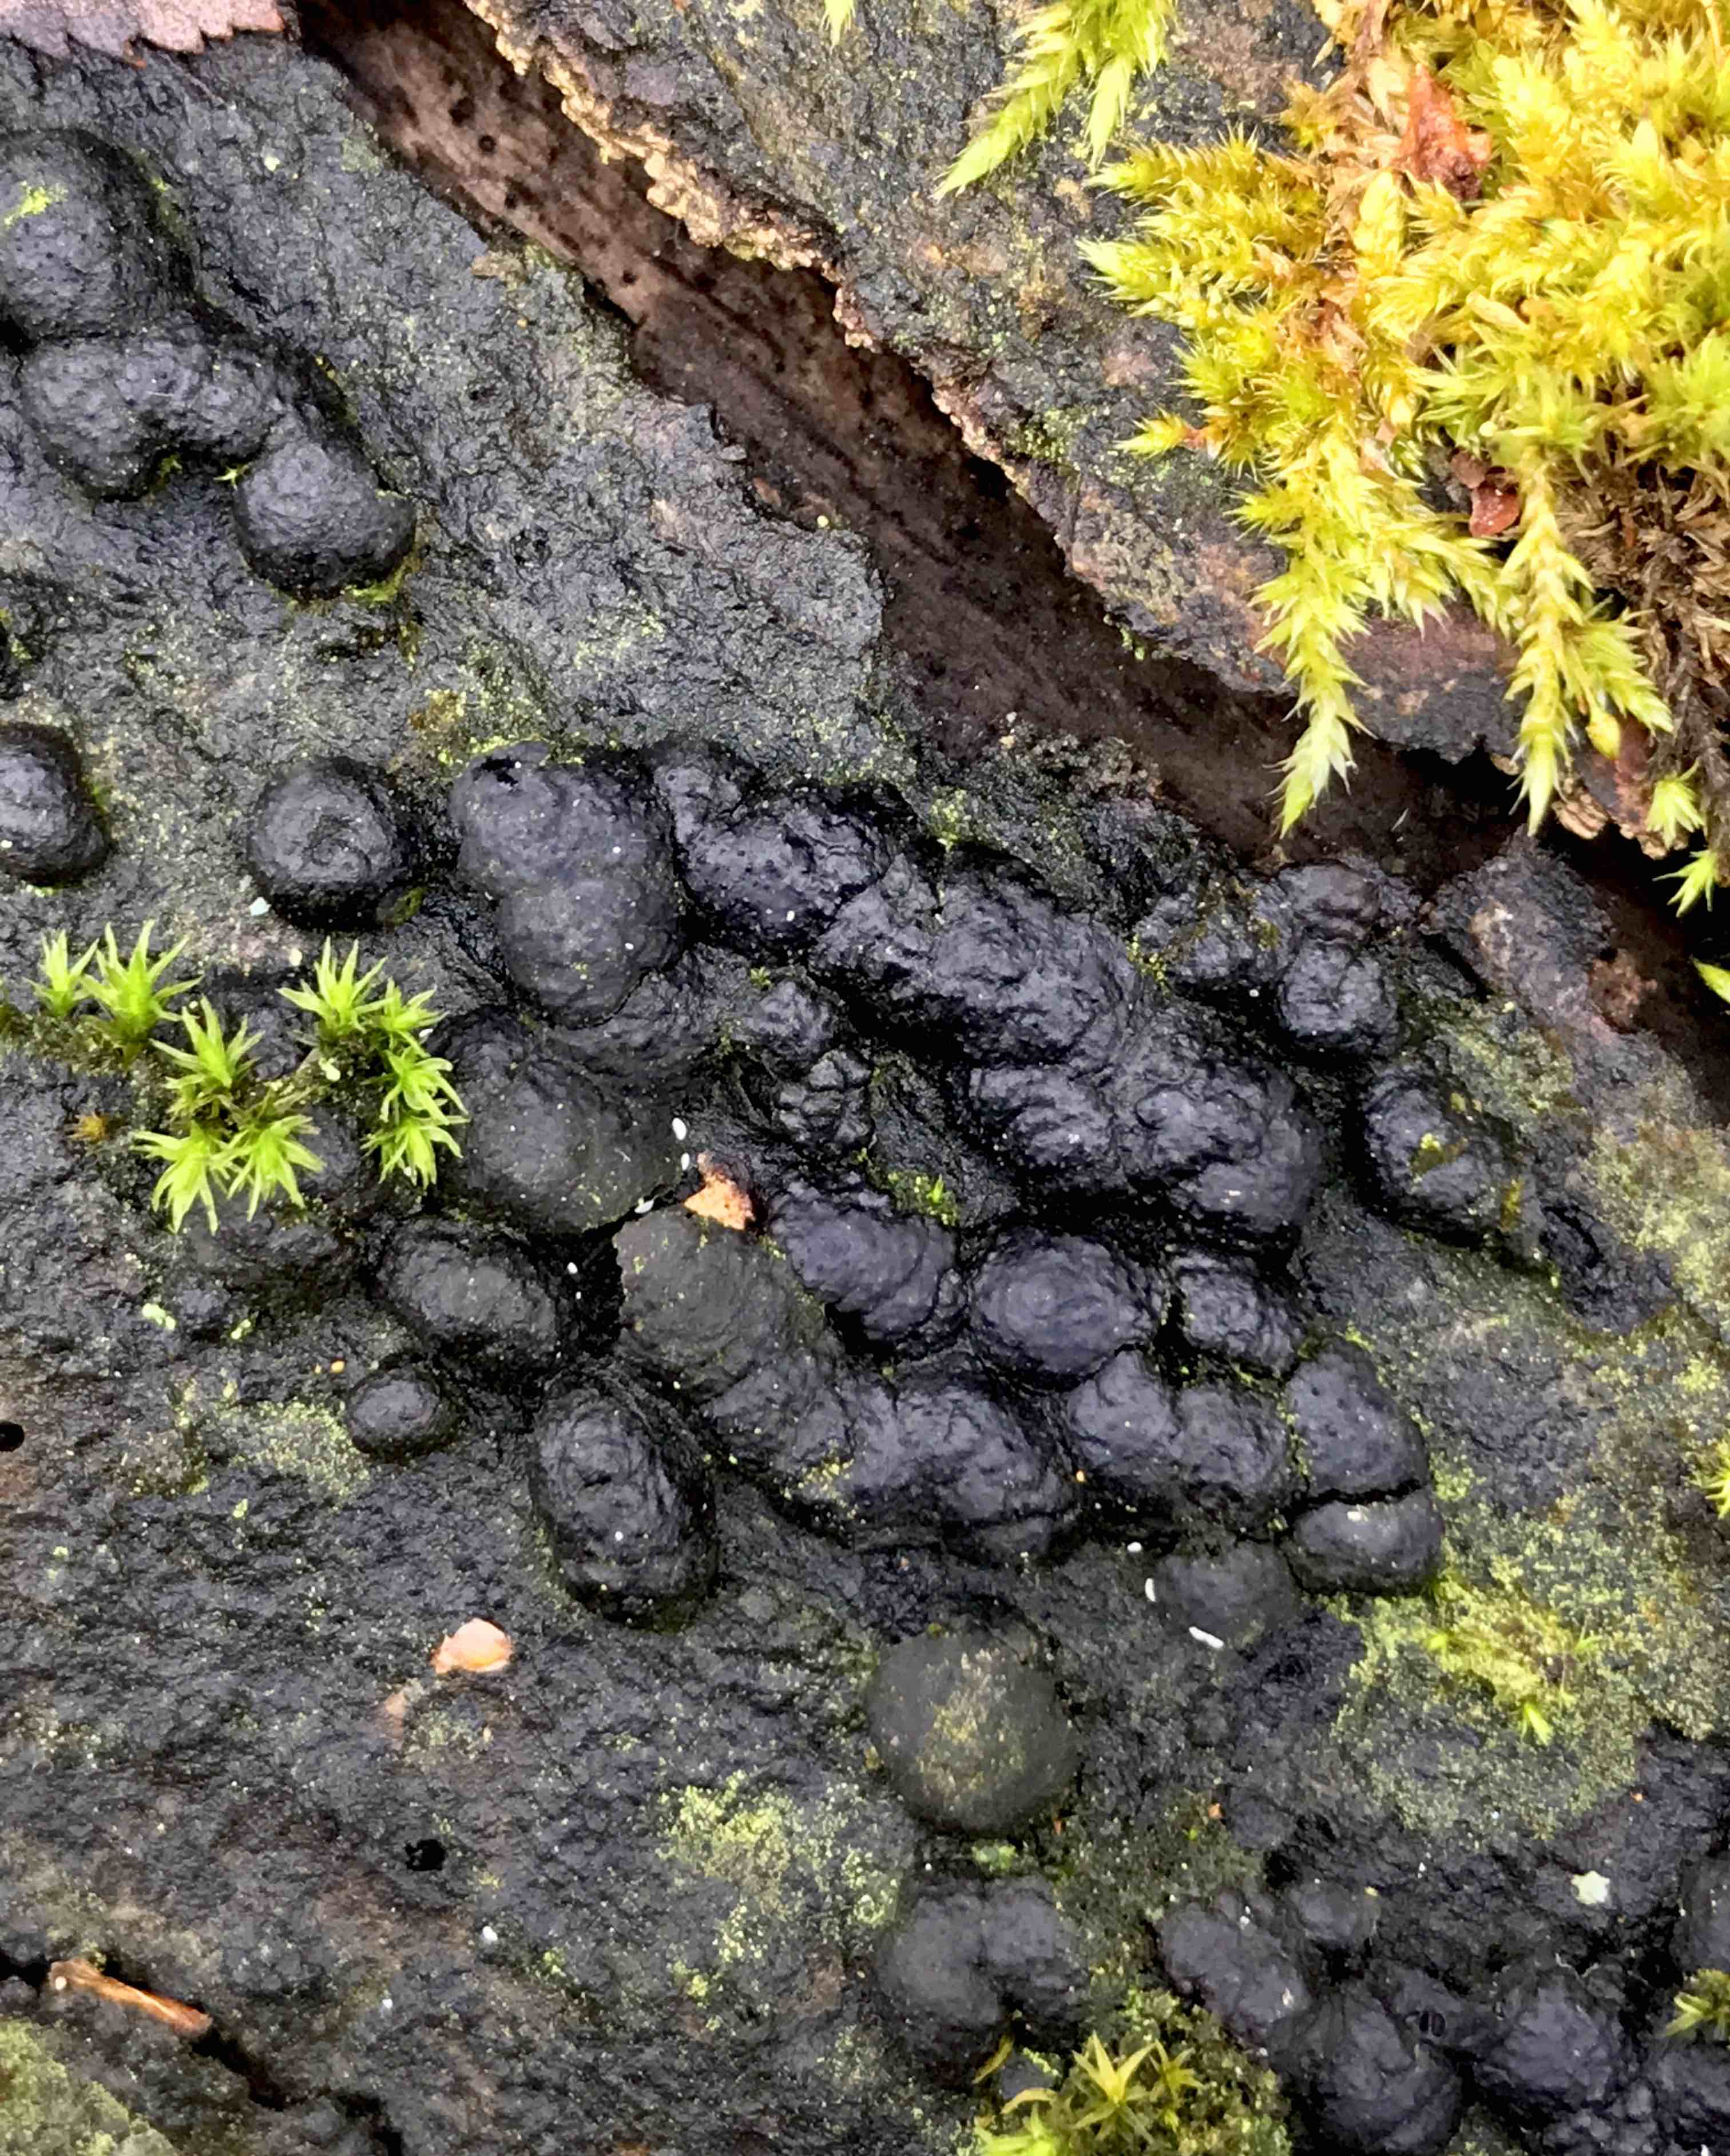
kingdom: Fungi
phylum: Ascomycota
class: Sordariomycetes
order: Xylariales
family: Hypoxylaceae
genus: Jackrogersella
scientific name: Jackrogersella multiformis
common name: foranderlig kulbær
